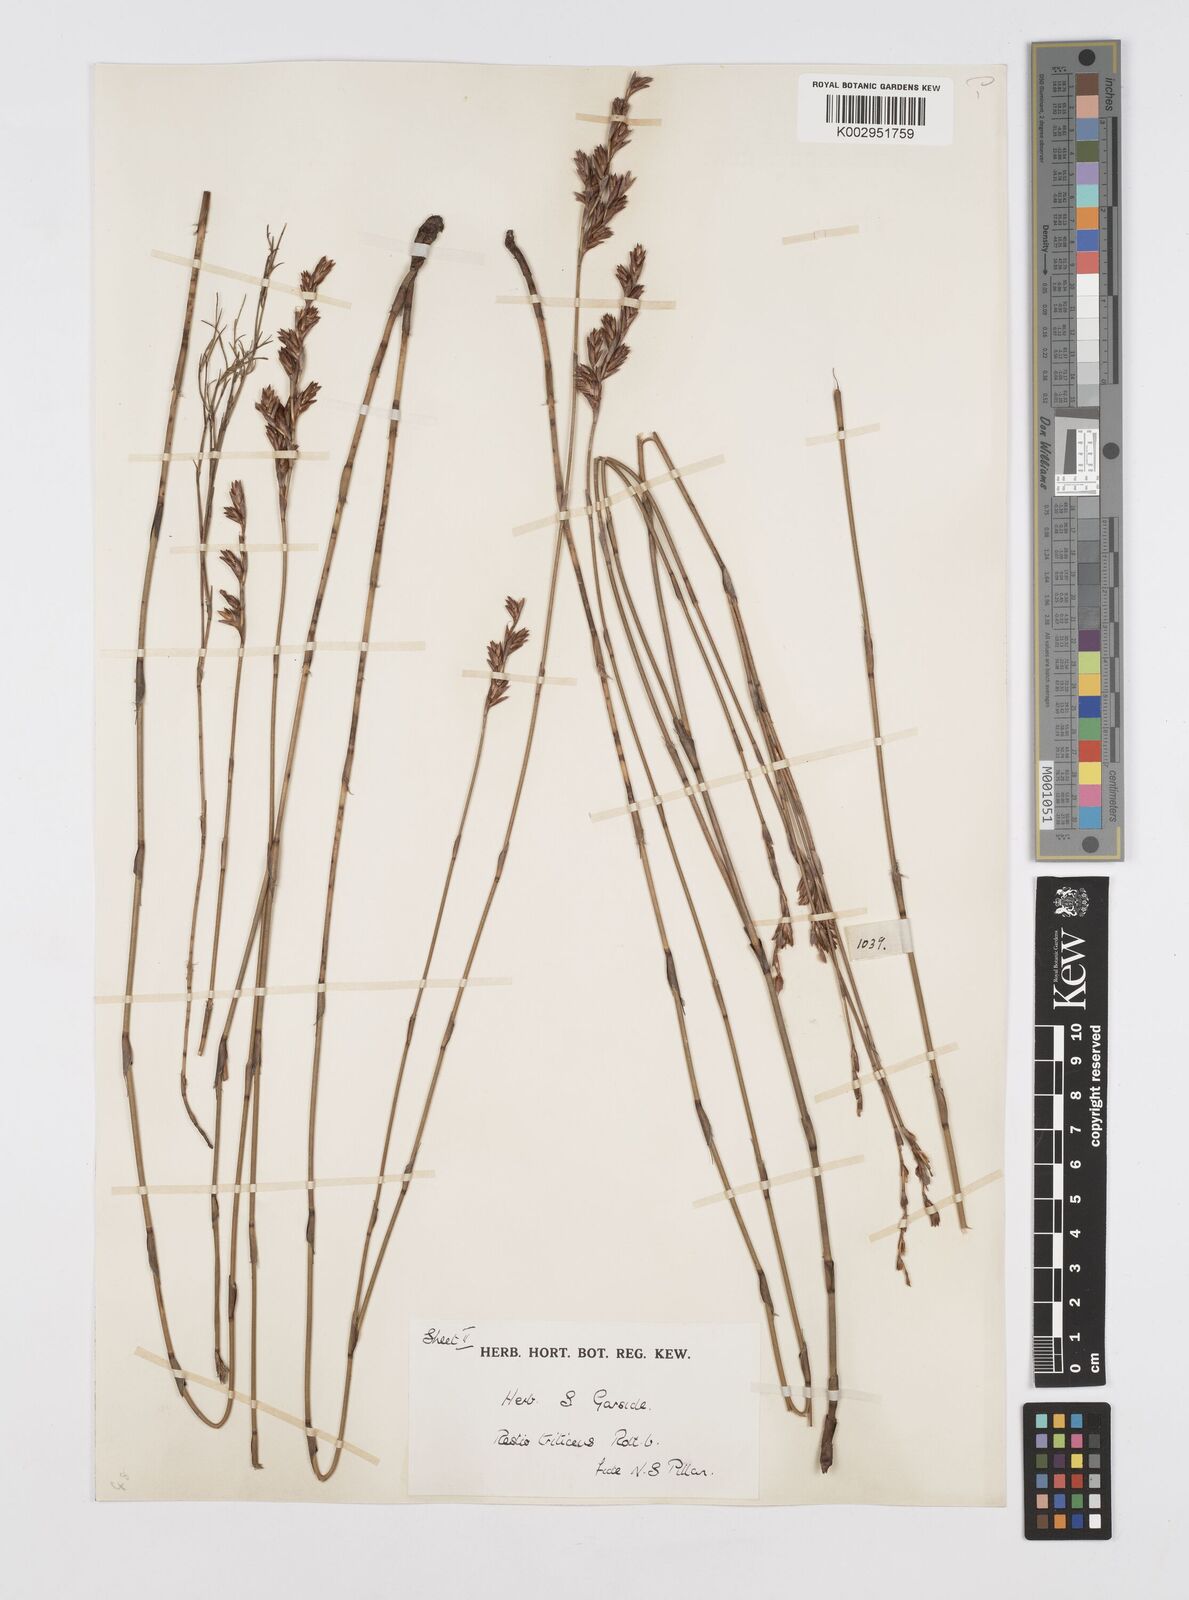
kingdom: Plantae
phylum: Tracheophyta
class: Liliopsida
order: Poales
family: Restionaceae
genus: Restio
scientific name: Restio triticeus
